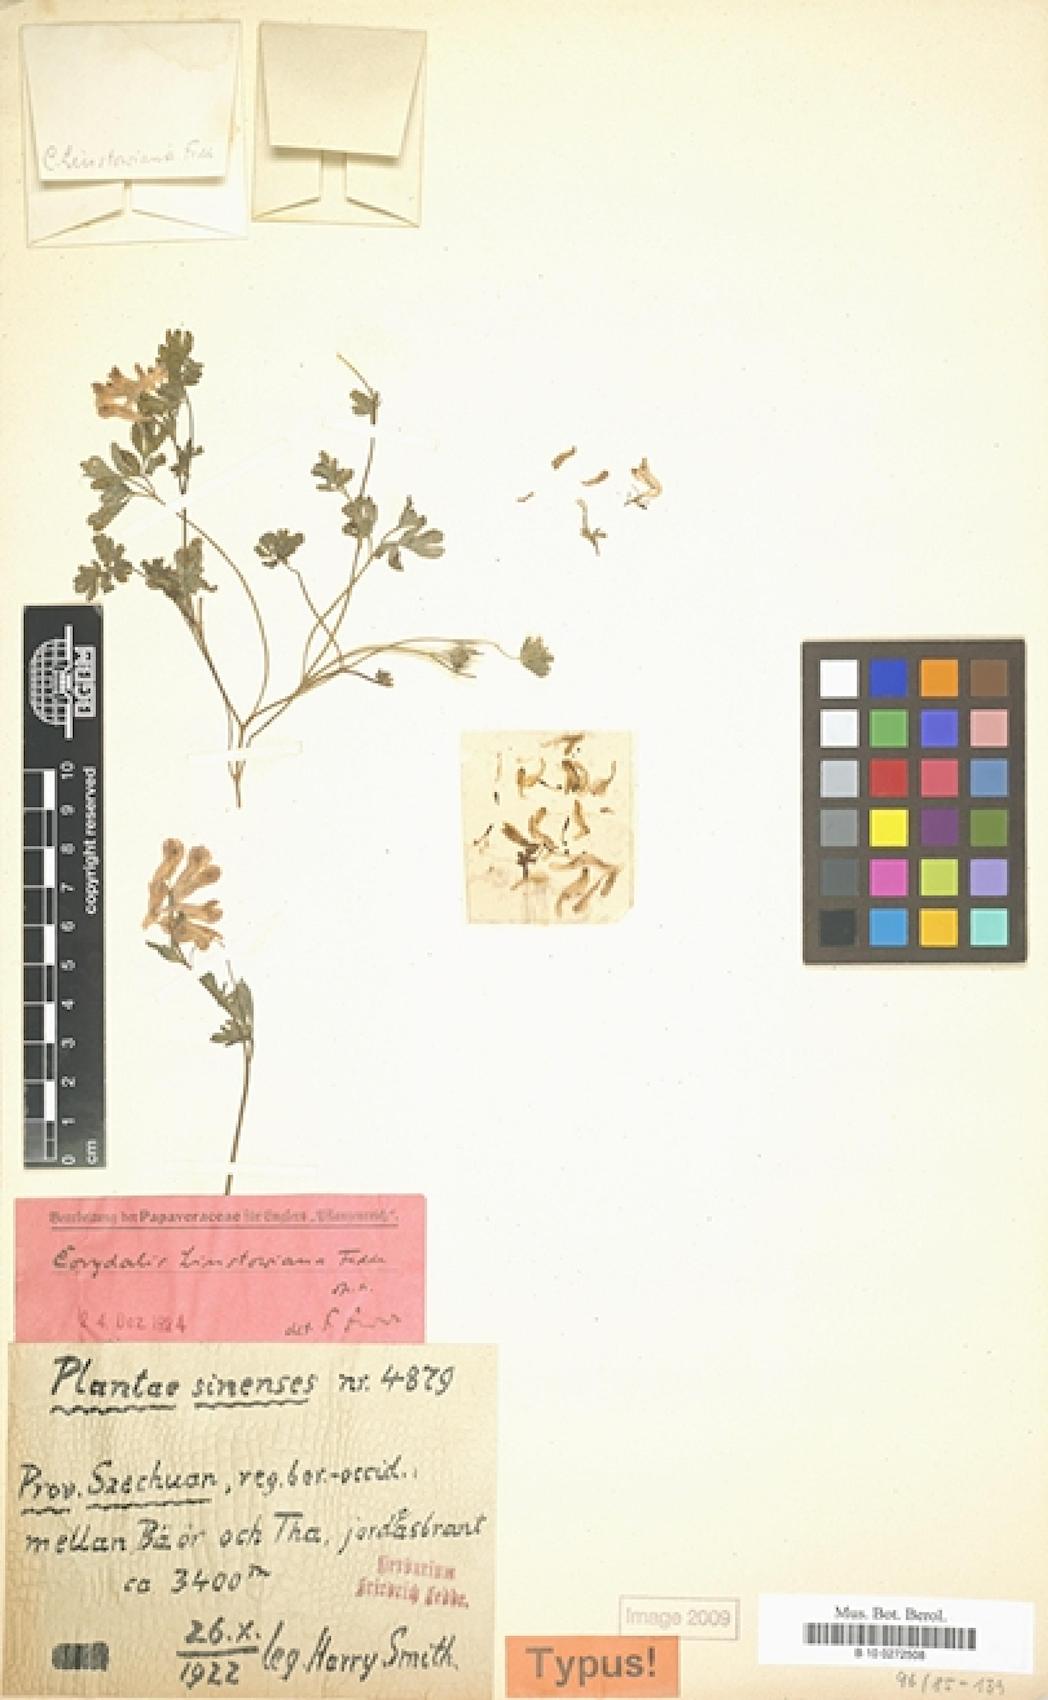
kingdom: Plantae
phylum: Tracheophyta
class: Magnoliopsida
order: Ranunculales
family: Papaveraceae
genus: Corydalis
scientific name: Corydalis linstowiana
